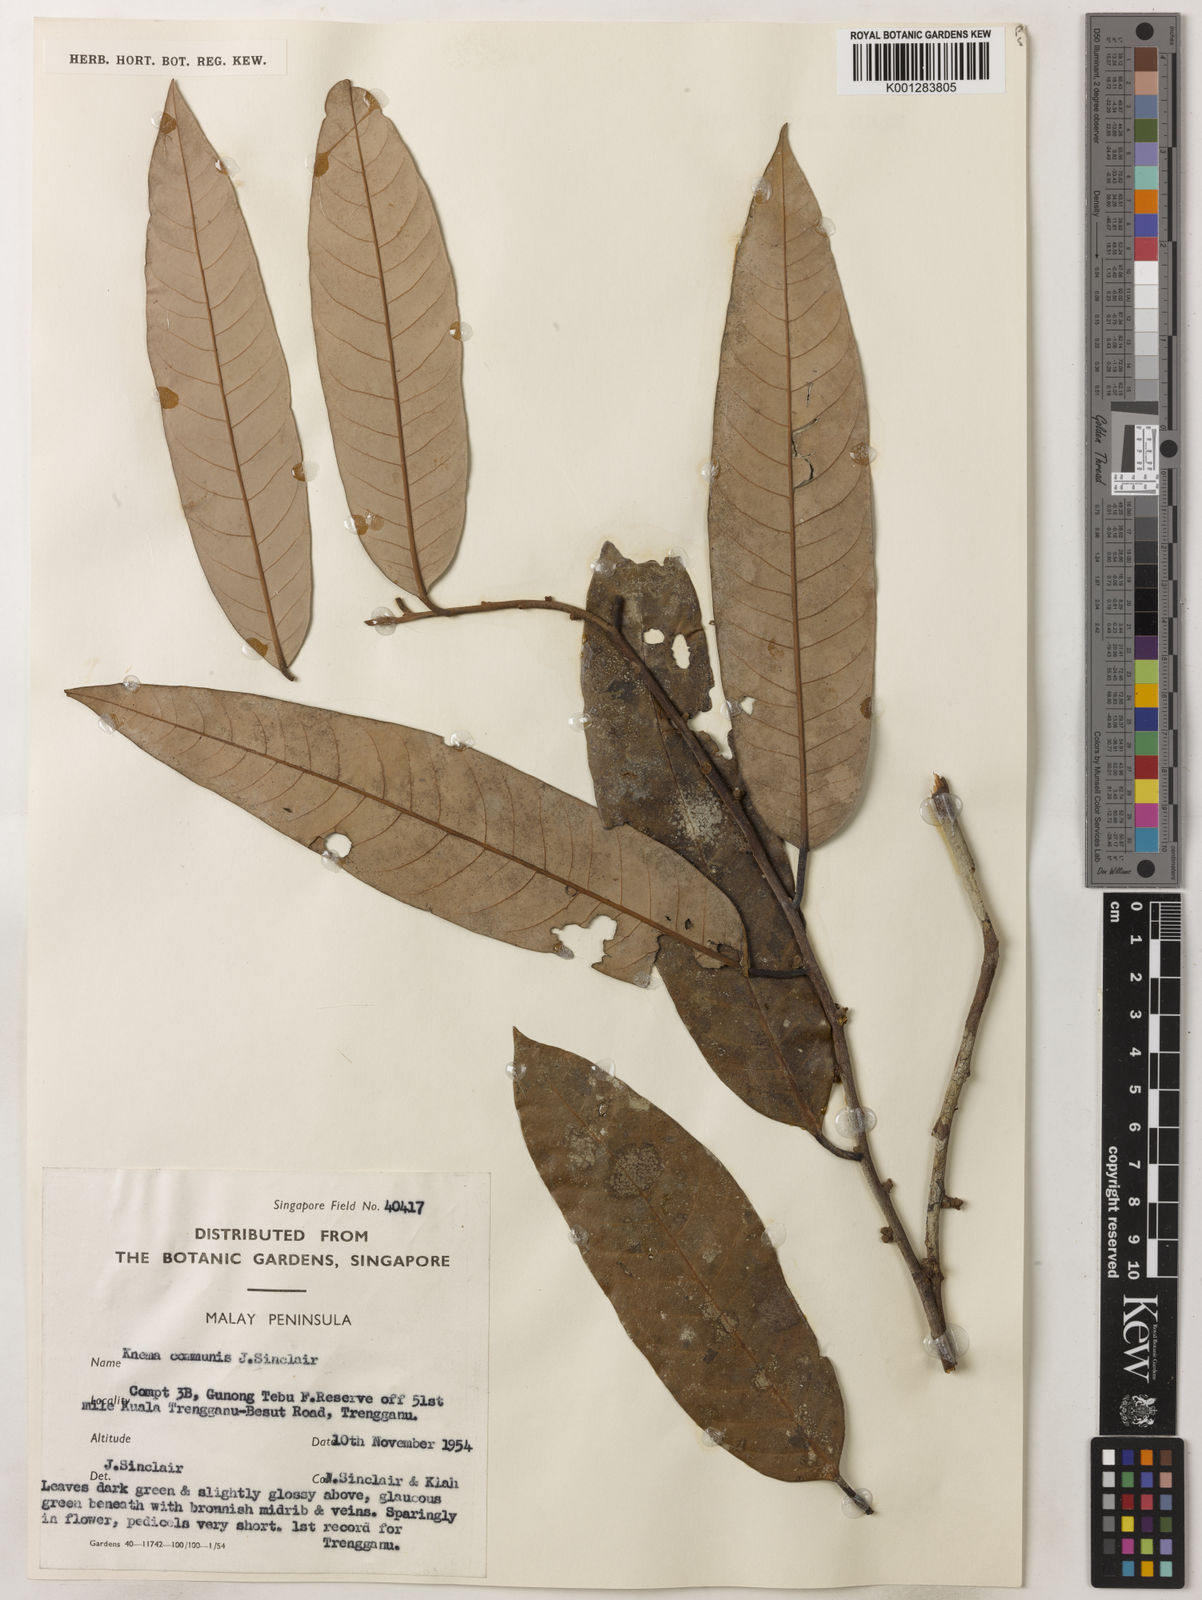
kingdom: Plantae
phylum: Tracheophyta
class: Magnoliopsida
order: Magnoliales
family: Myristicaceae
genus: Knema
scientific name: Knema communis
